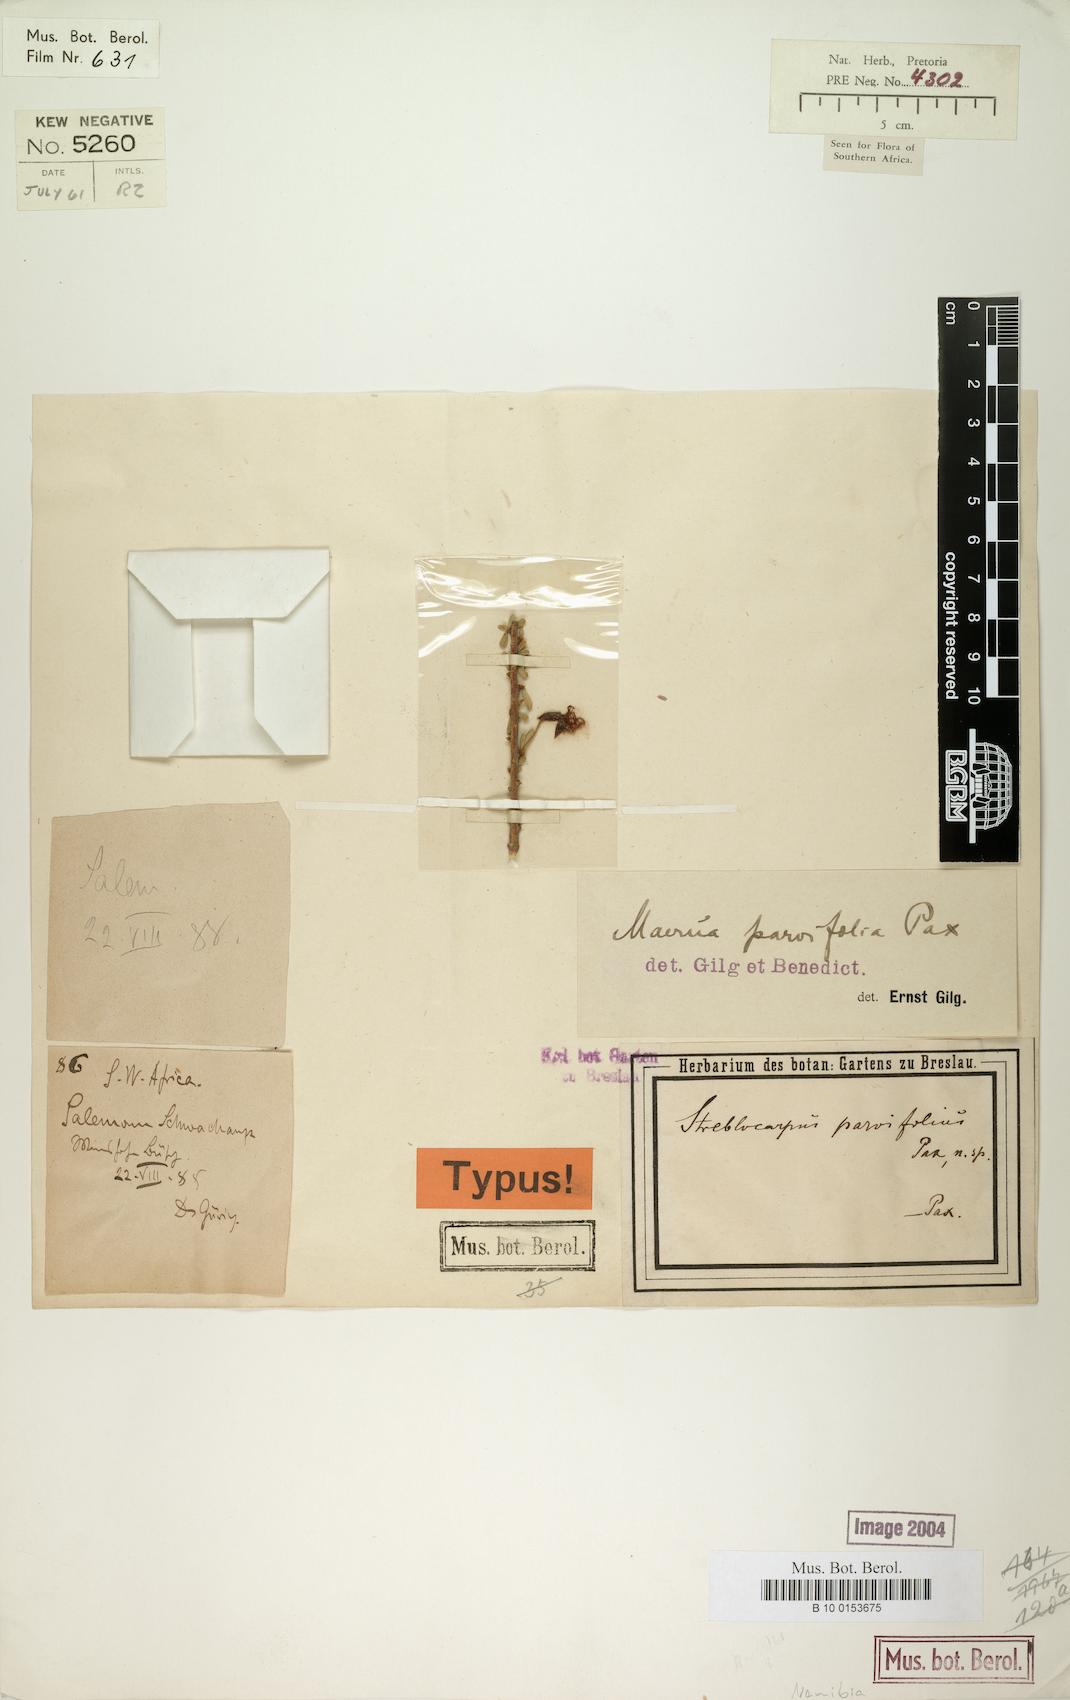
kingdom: Plantae
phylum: Tracheophyta
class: Magnoliopsida
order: Brassicales
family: Capparaceae
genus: Maerua
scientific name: Maerua parvifolia
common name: Dwarf bush-cherry
